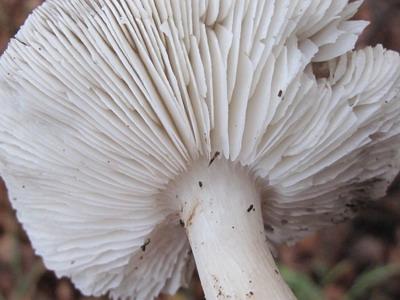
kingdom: Fungi
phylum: Basidiomycota
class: Agaricomycetes
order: Agaricales
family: Tricholomataceae
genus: Tricholoma
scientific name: Tricholoma scalpturatum
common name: gulplettet ridderhat
